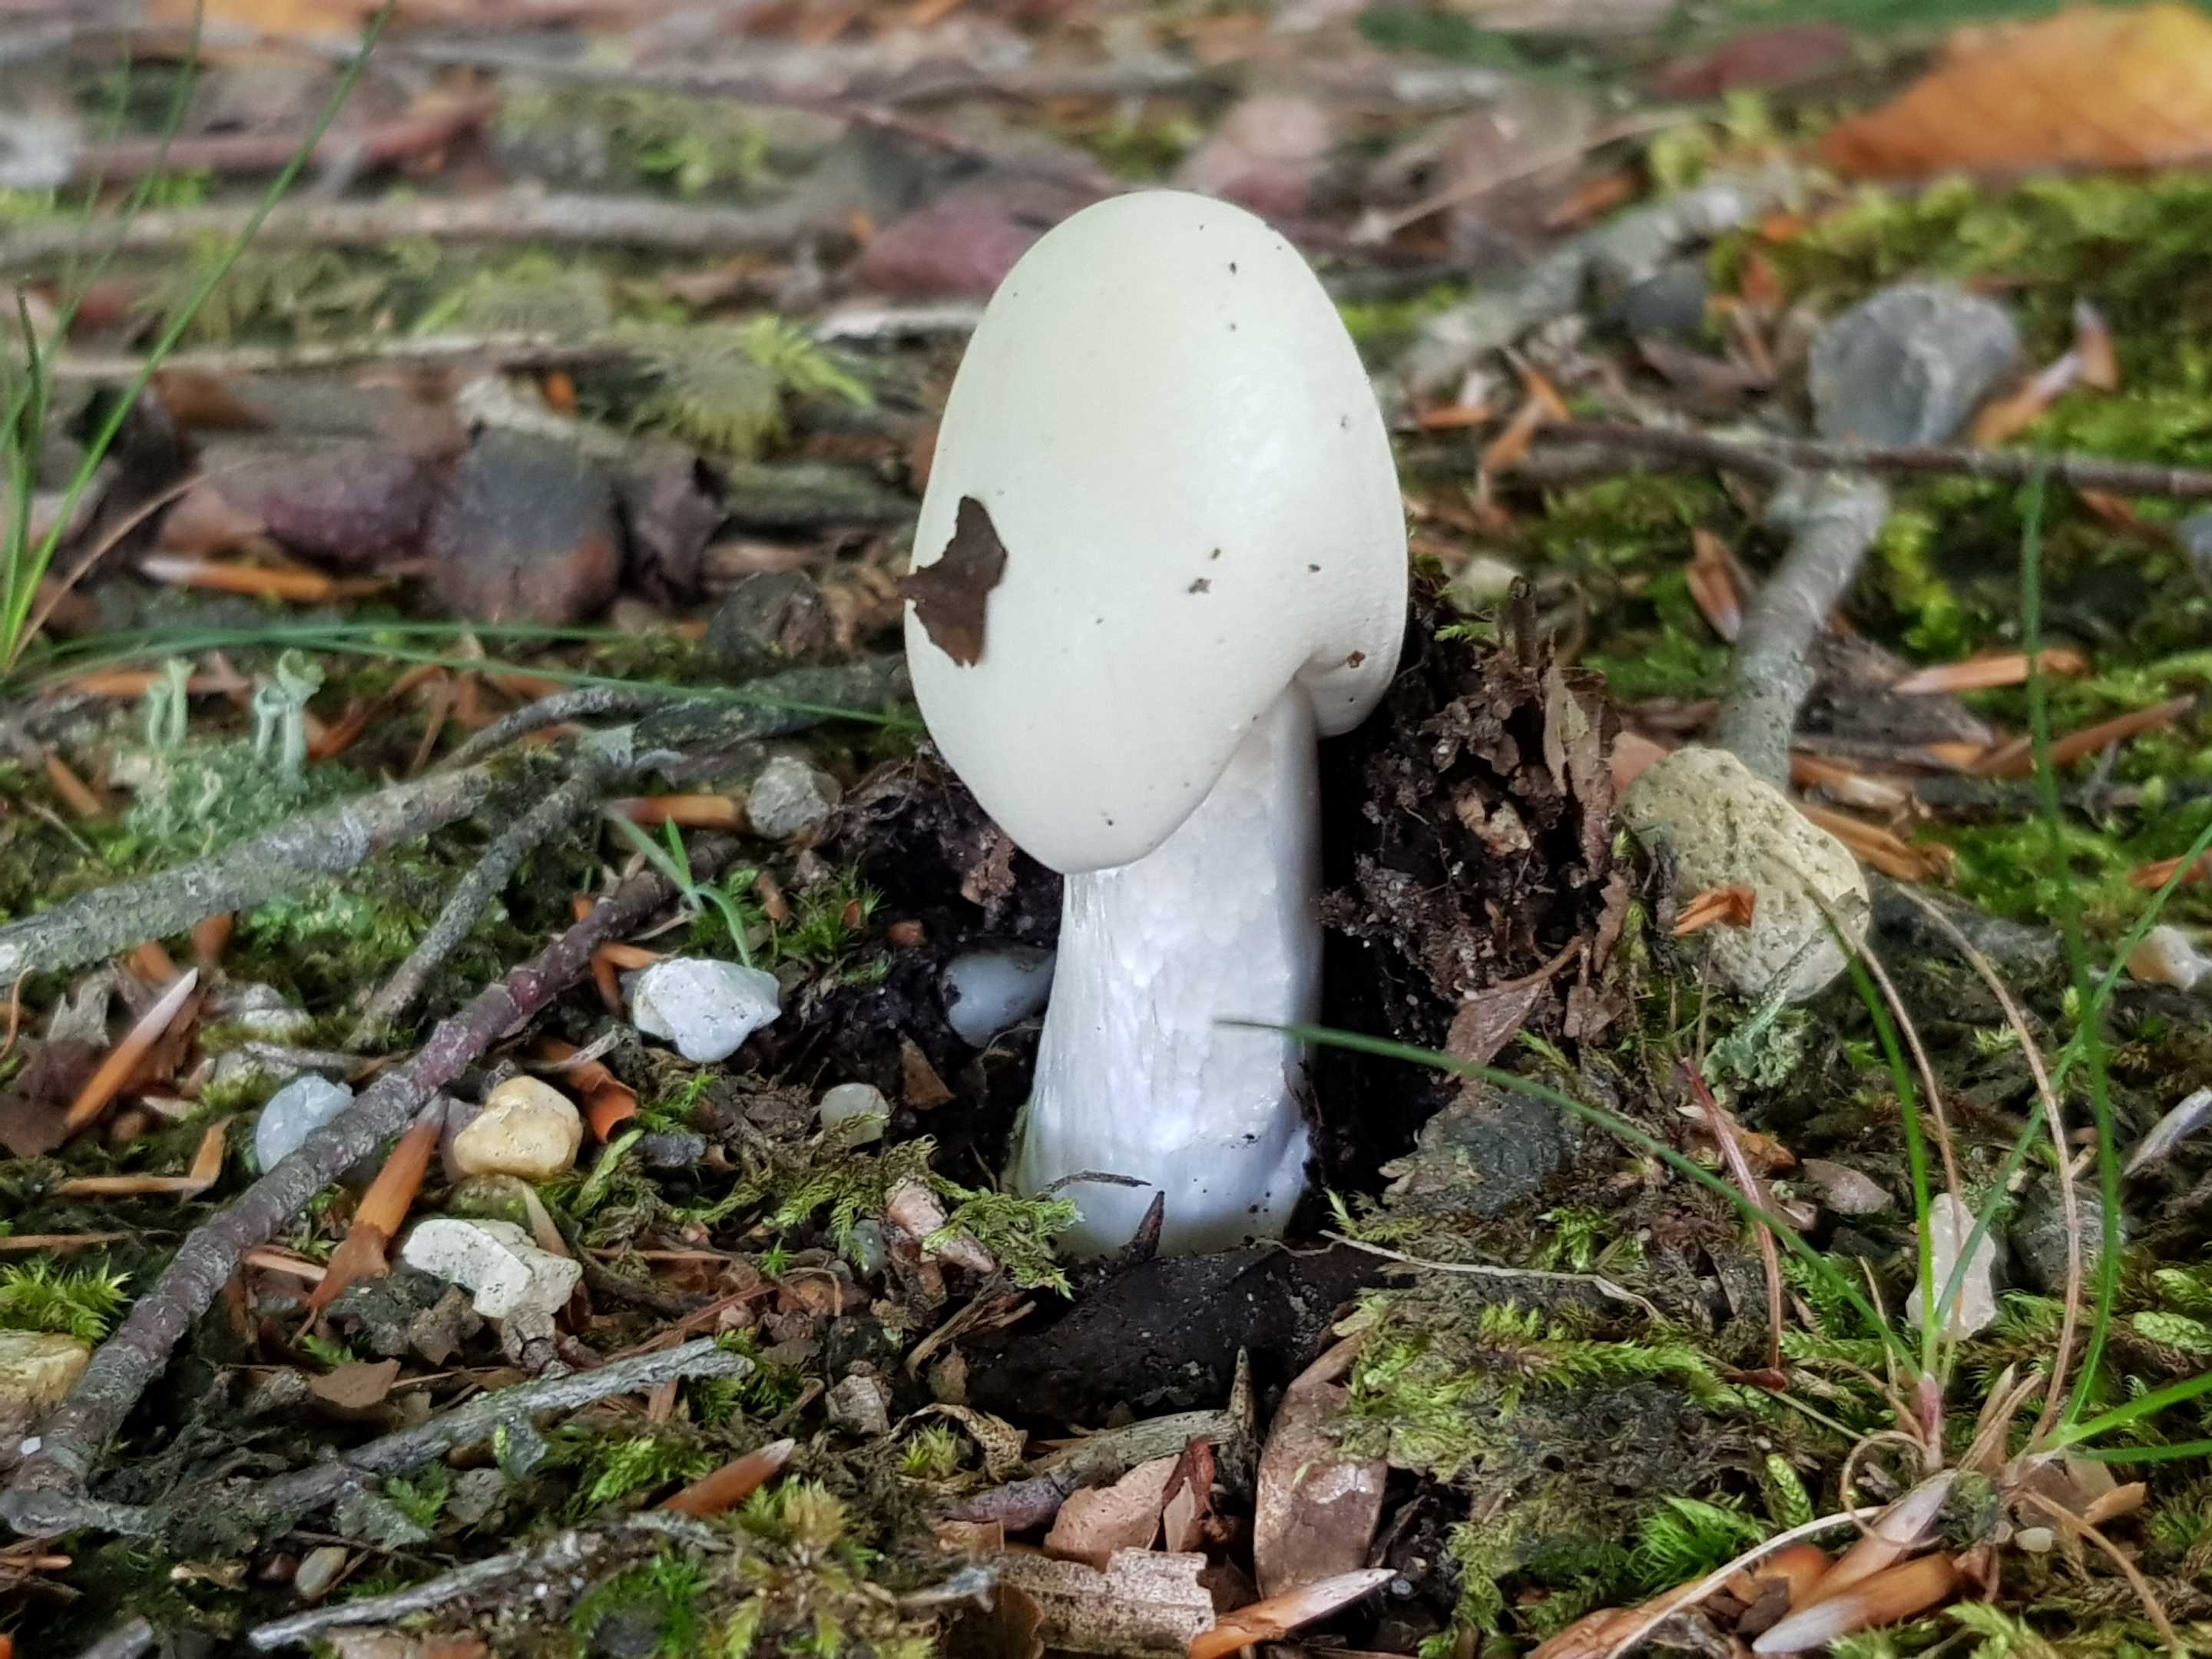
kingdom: Fungi
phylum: Basidiomycota
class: Agaricomycetes
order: Agaricales
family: Amanitaceae
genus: Amanita
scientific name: Amanita virosa
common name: snehvid fluesvamp
